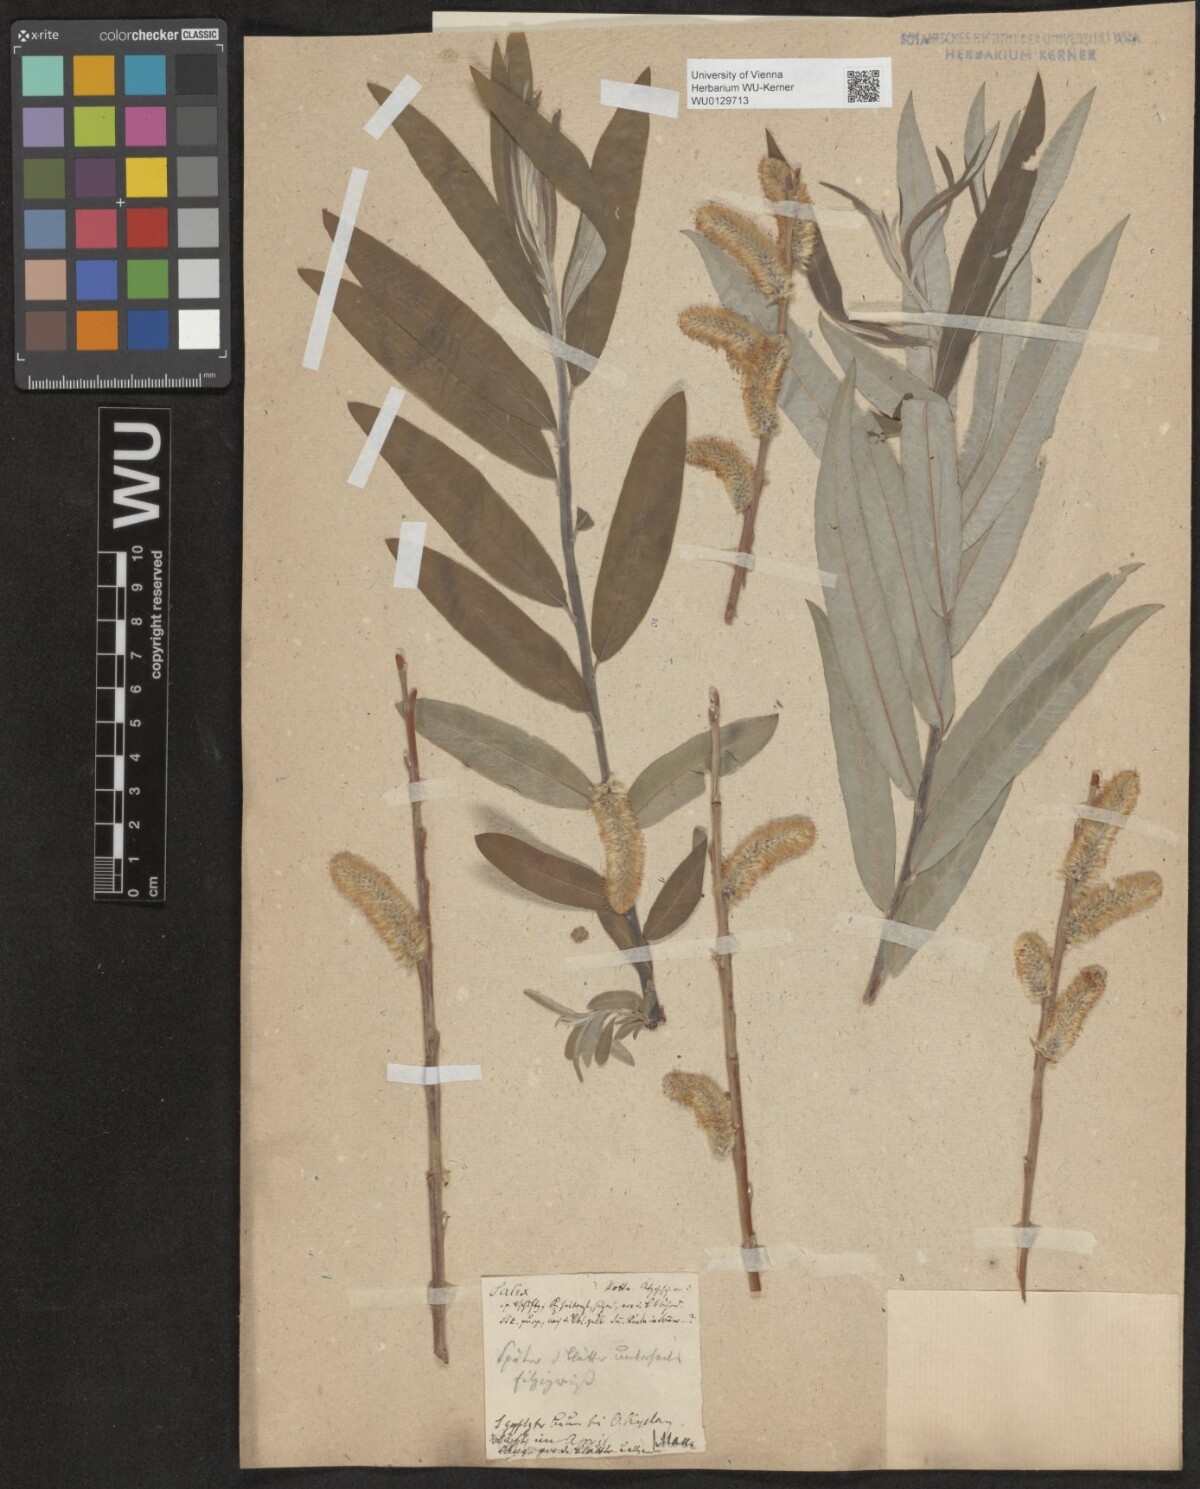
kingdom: Plantae
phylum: Tracheophyta
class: Magnoliopsida
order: Malpighiales
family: Salicaceae
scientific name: Salicaceae
